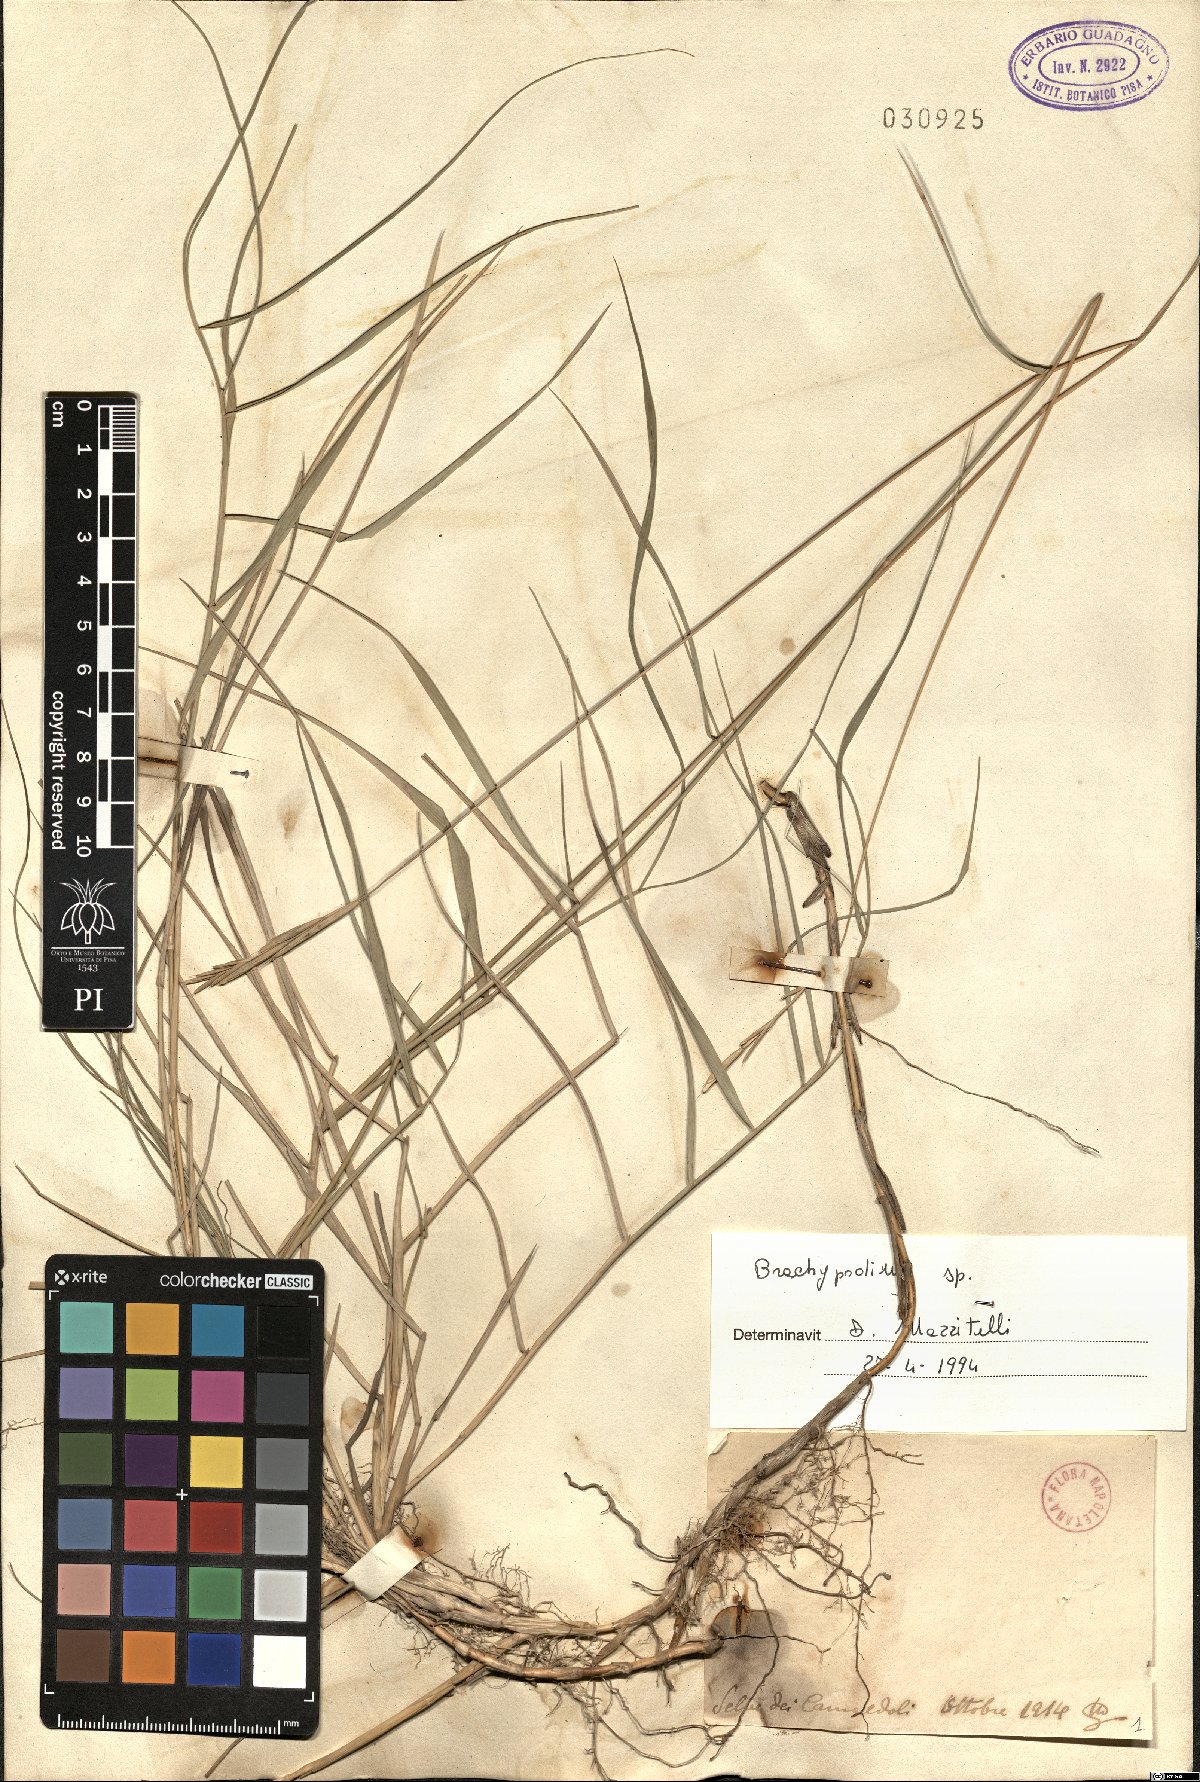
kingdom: Plantae
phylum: Tracheophyta
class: Liliopsida
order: Poales
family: Poaceae
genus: Brachypodium
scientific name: Brachypodium
